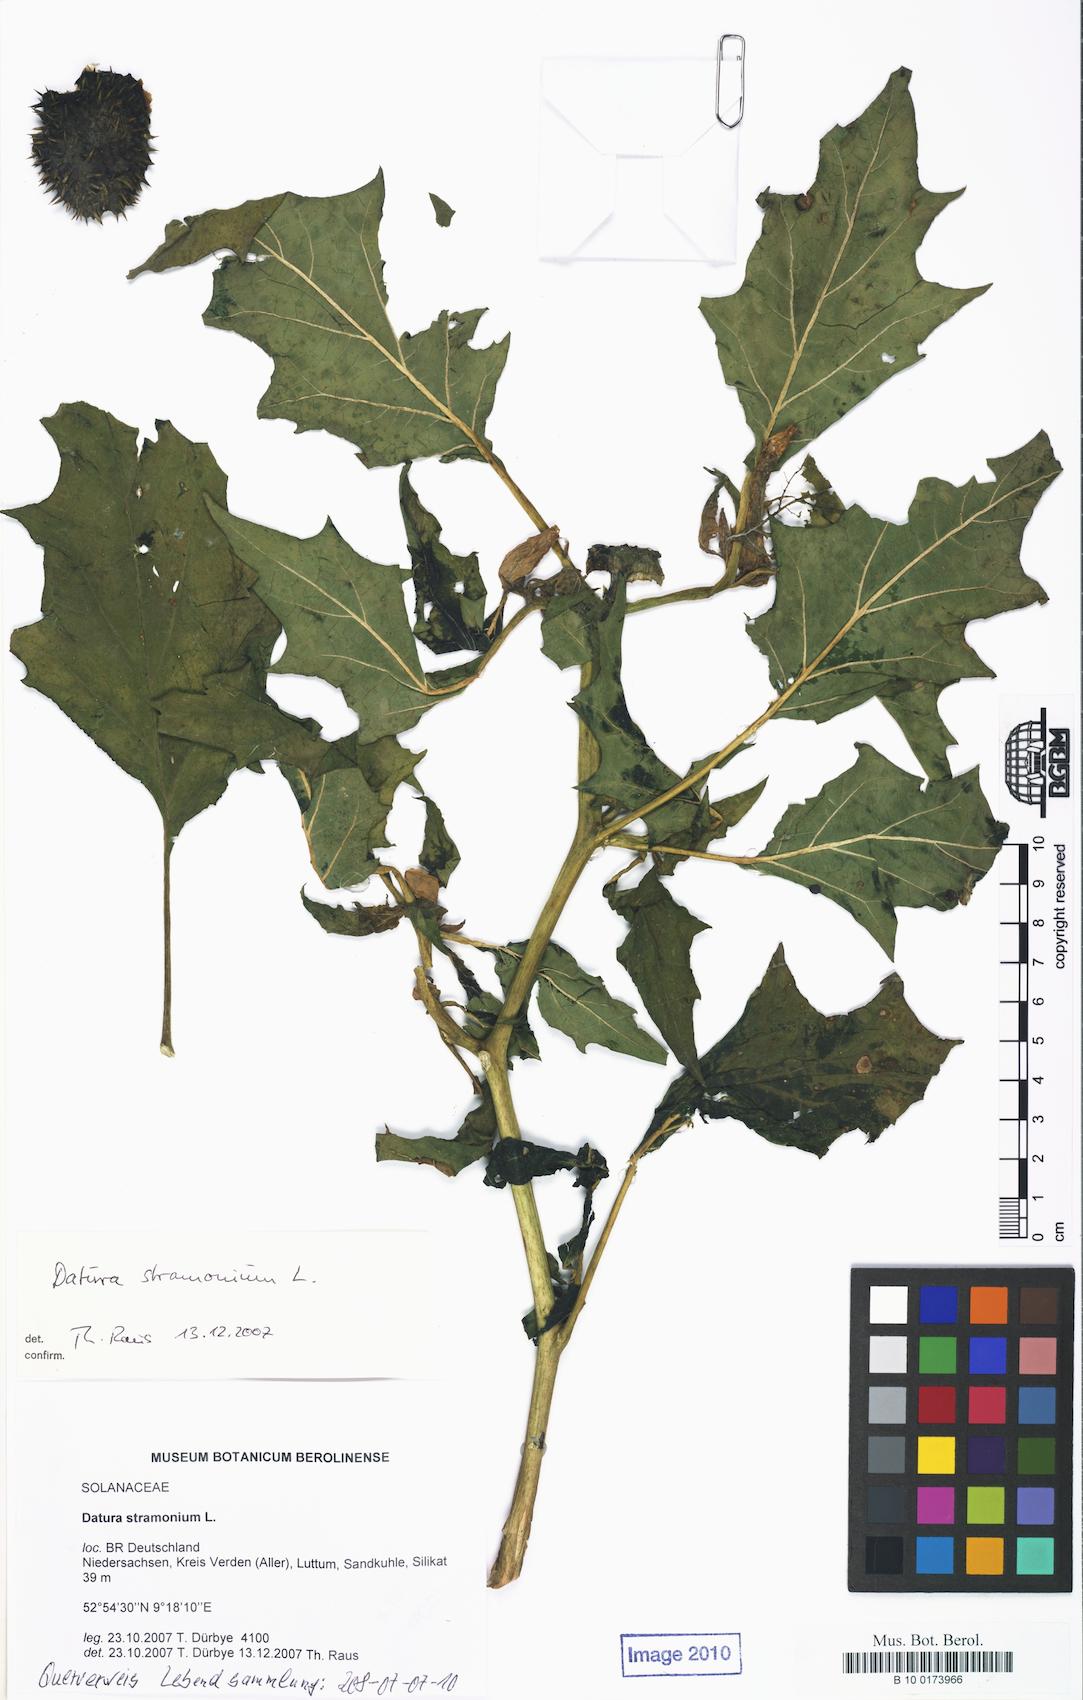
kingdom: Plantae
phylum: Tracheophyta
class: Magnoliopsida
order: Solanales
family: Solanaceae
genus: Datura
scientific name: Datura stramonium
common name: Thorn-apple
